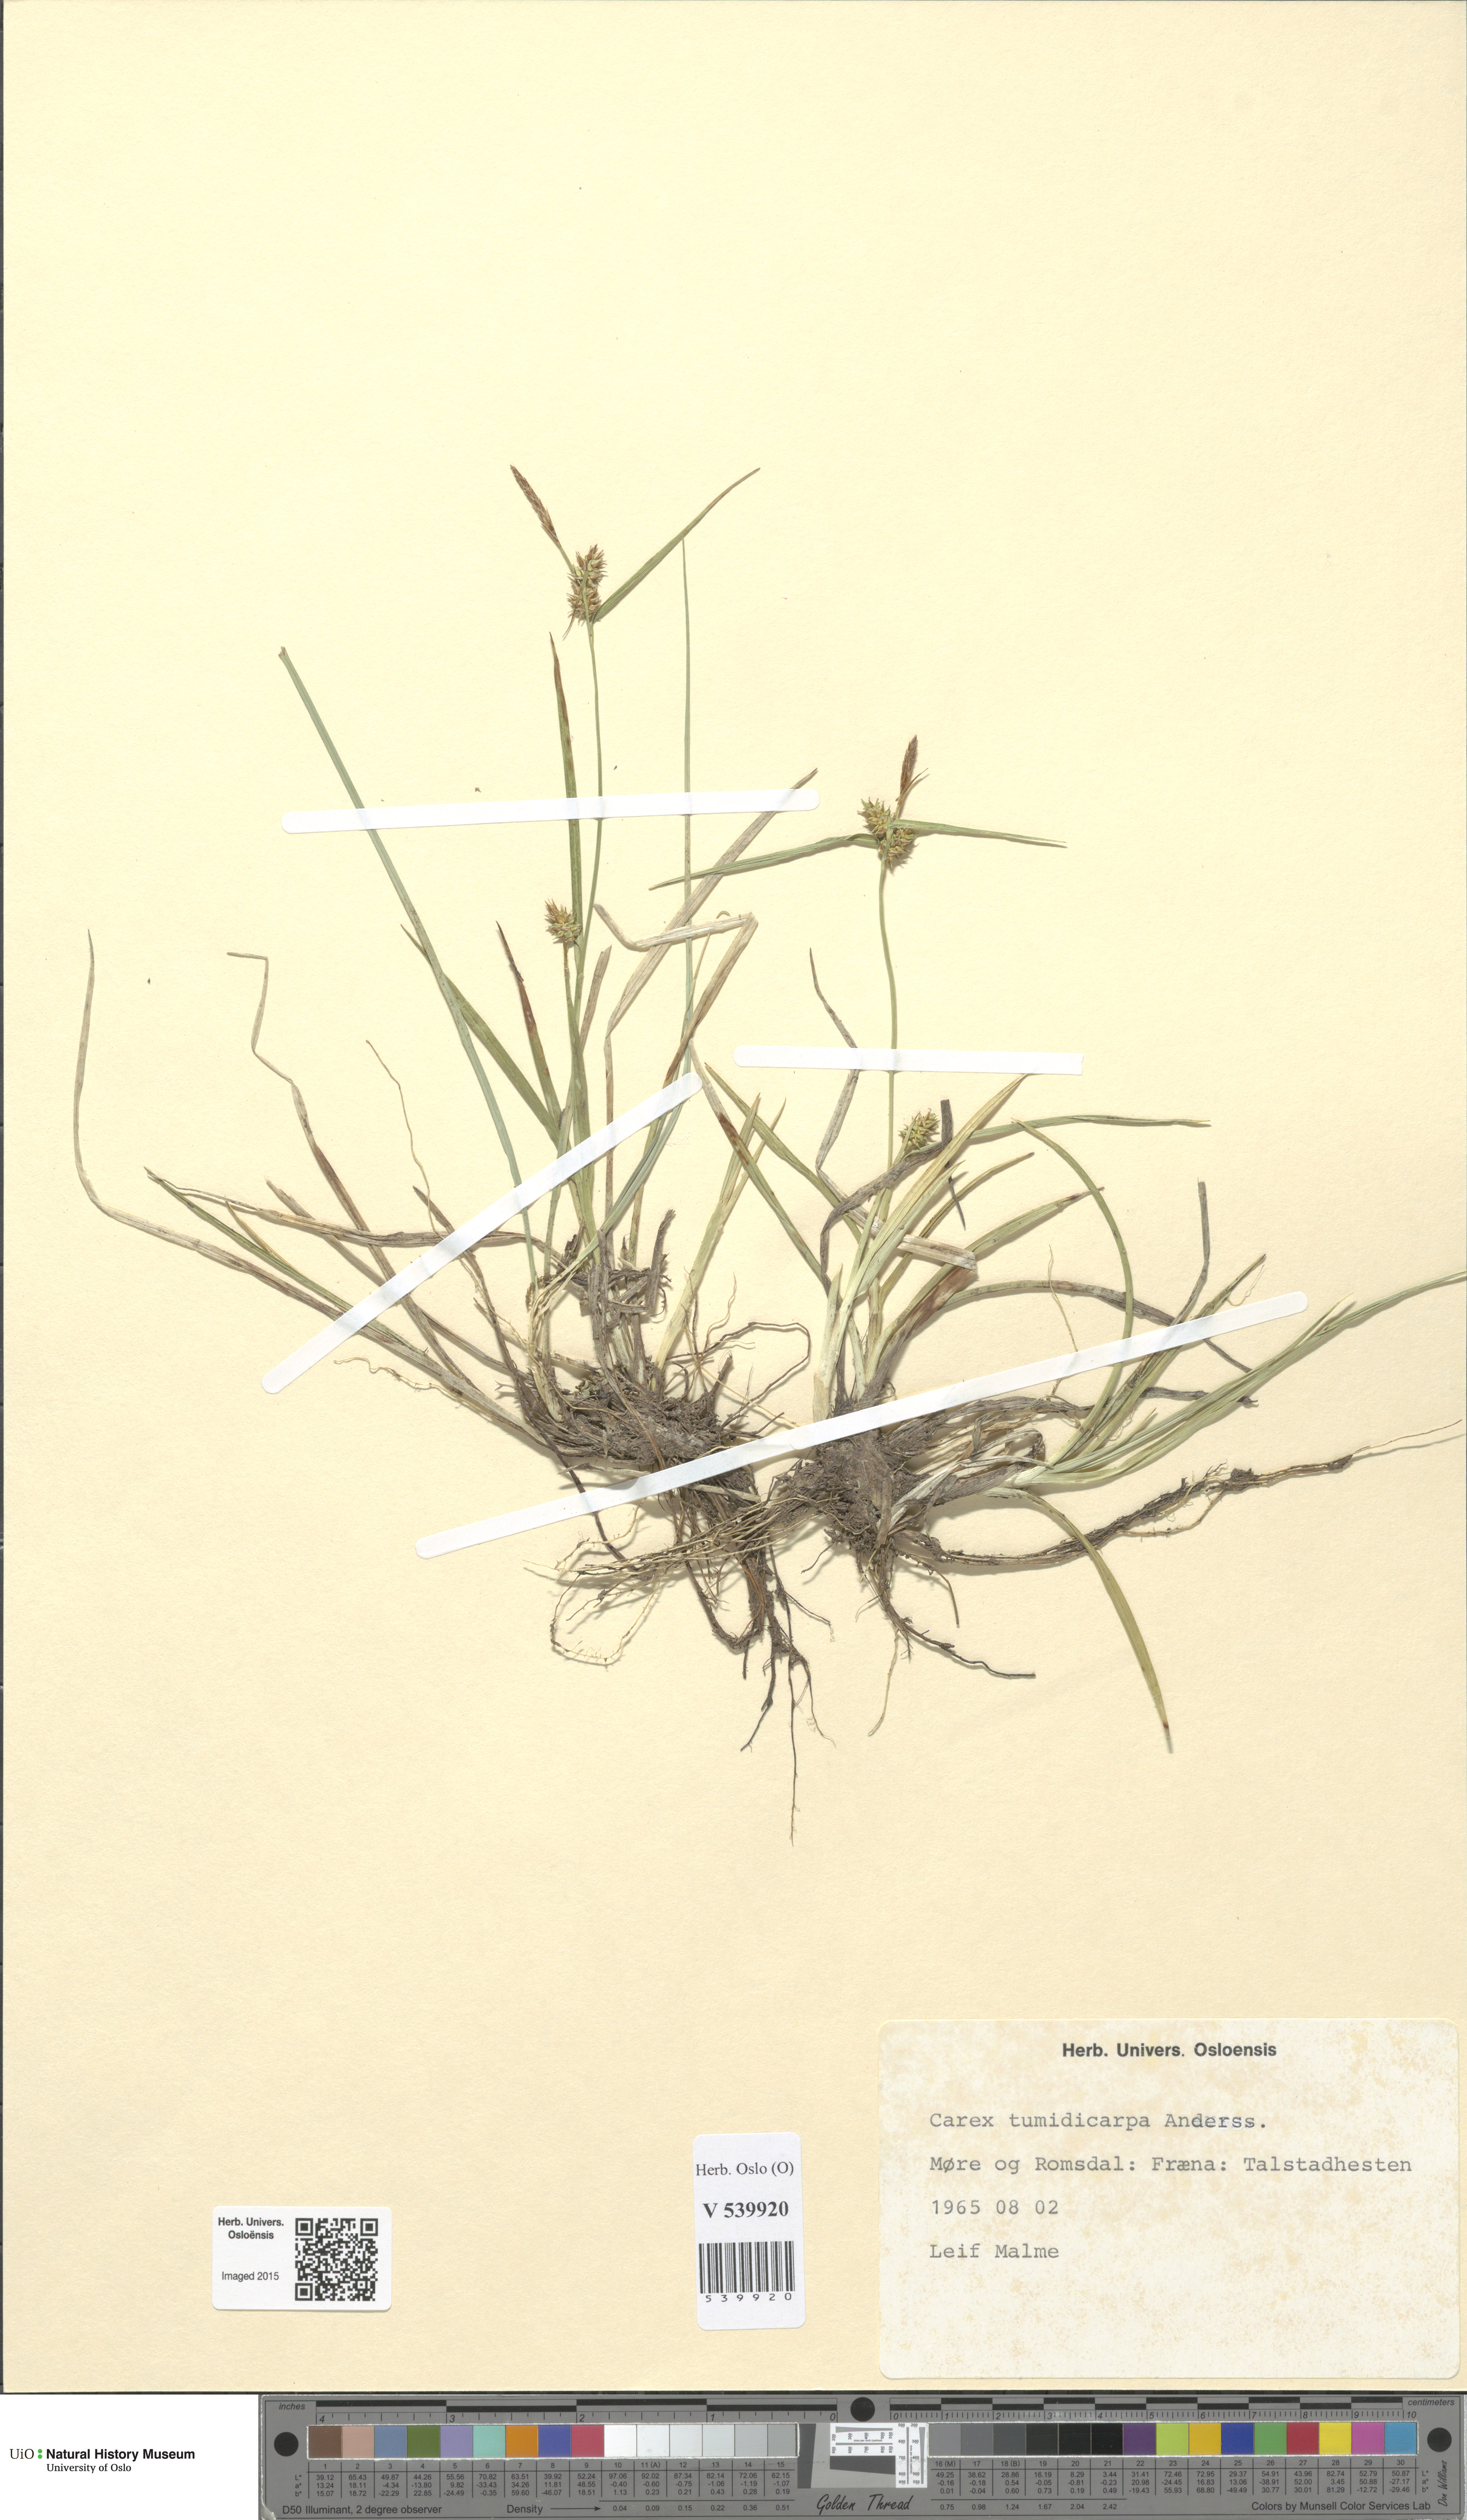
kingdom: Plantae
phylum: Tracheophyta
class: Liliopsida
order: Poales
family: Cyperaceae
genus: Carex
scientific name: Carex demissa
